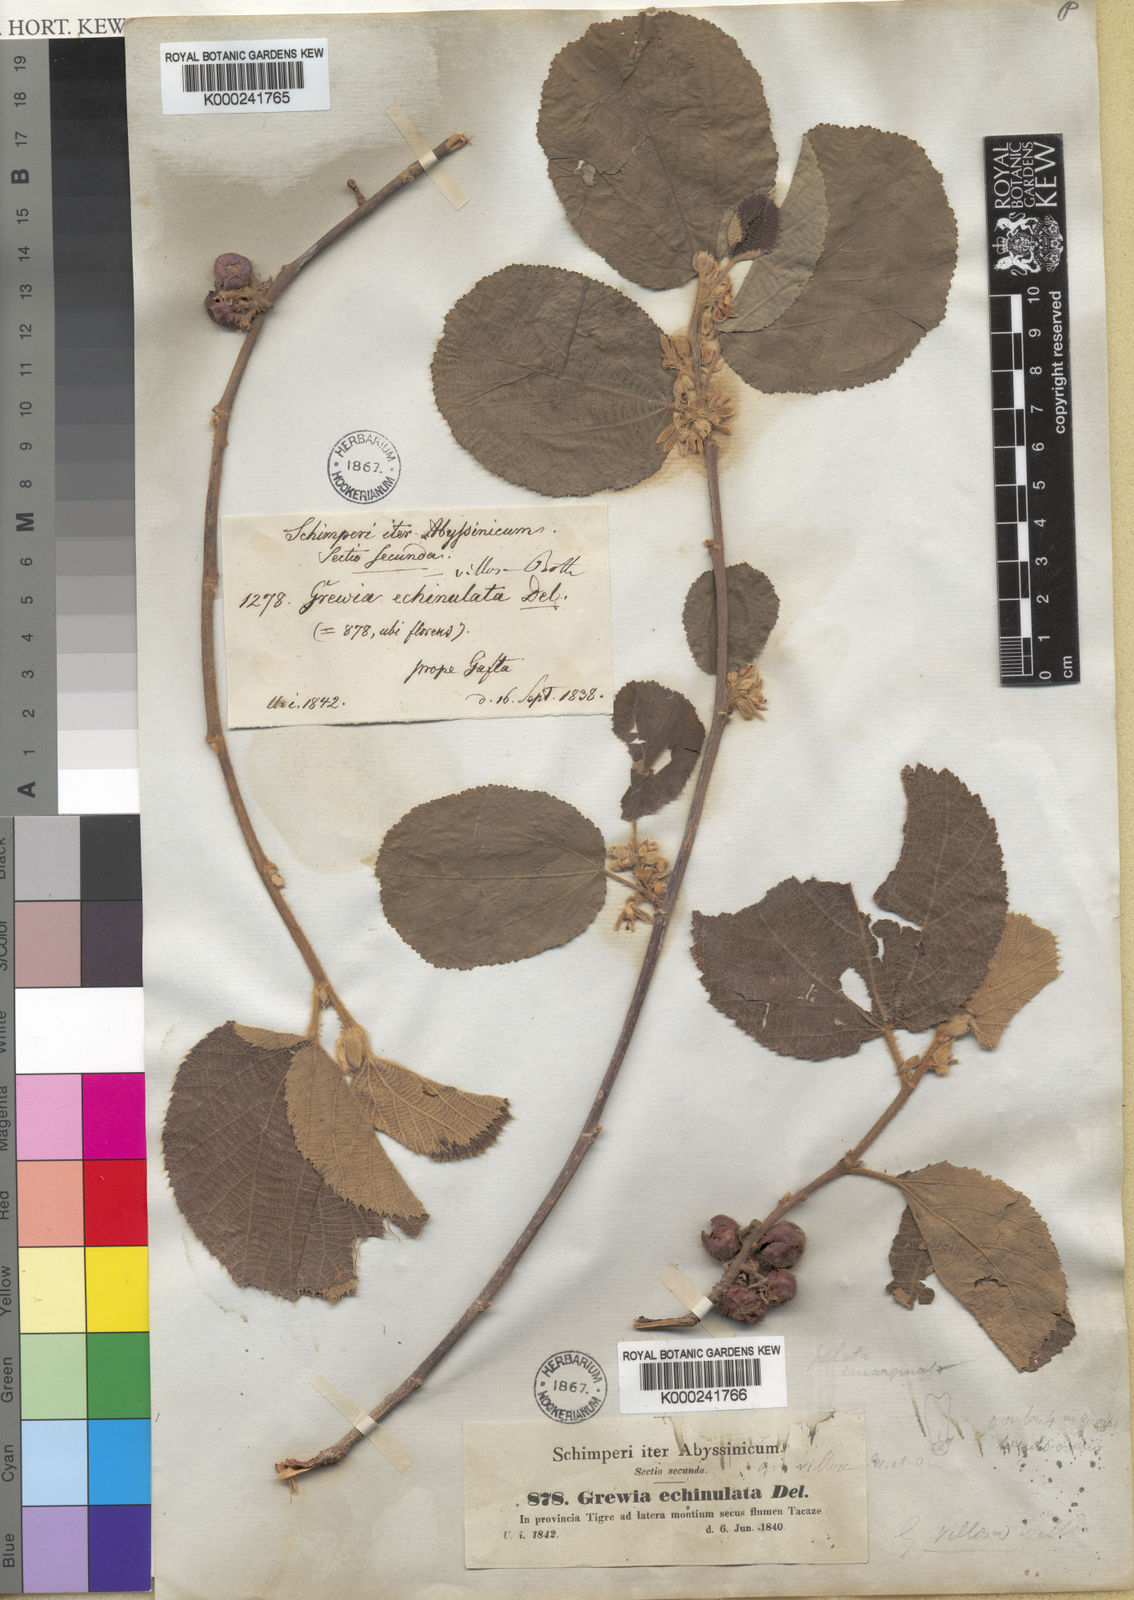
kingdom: Plantae
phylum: Tracheophyta
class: Magnoliopsida
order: Malvales
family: Malvaceae
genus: Grewia
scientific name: Grewia villosa
